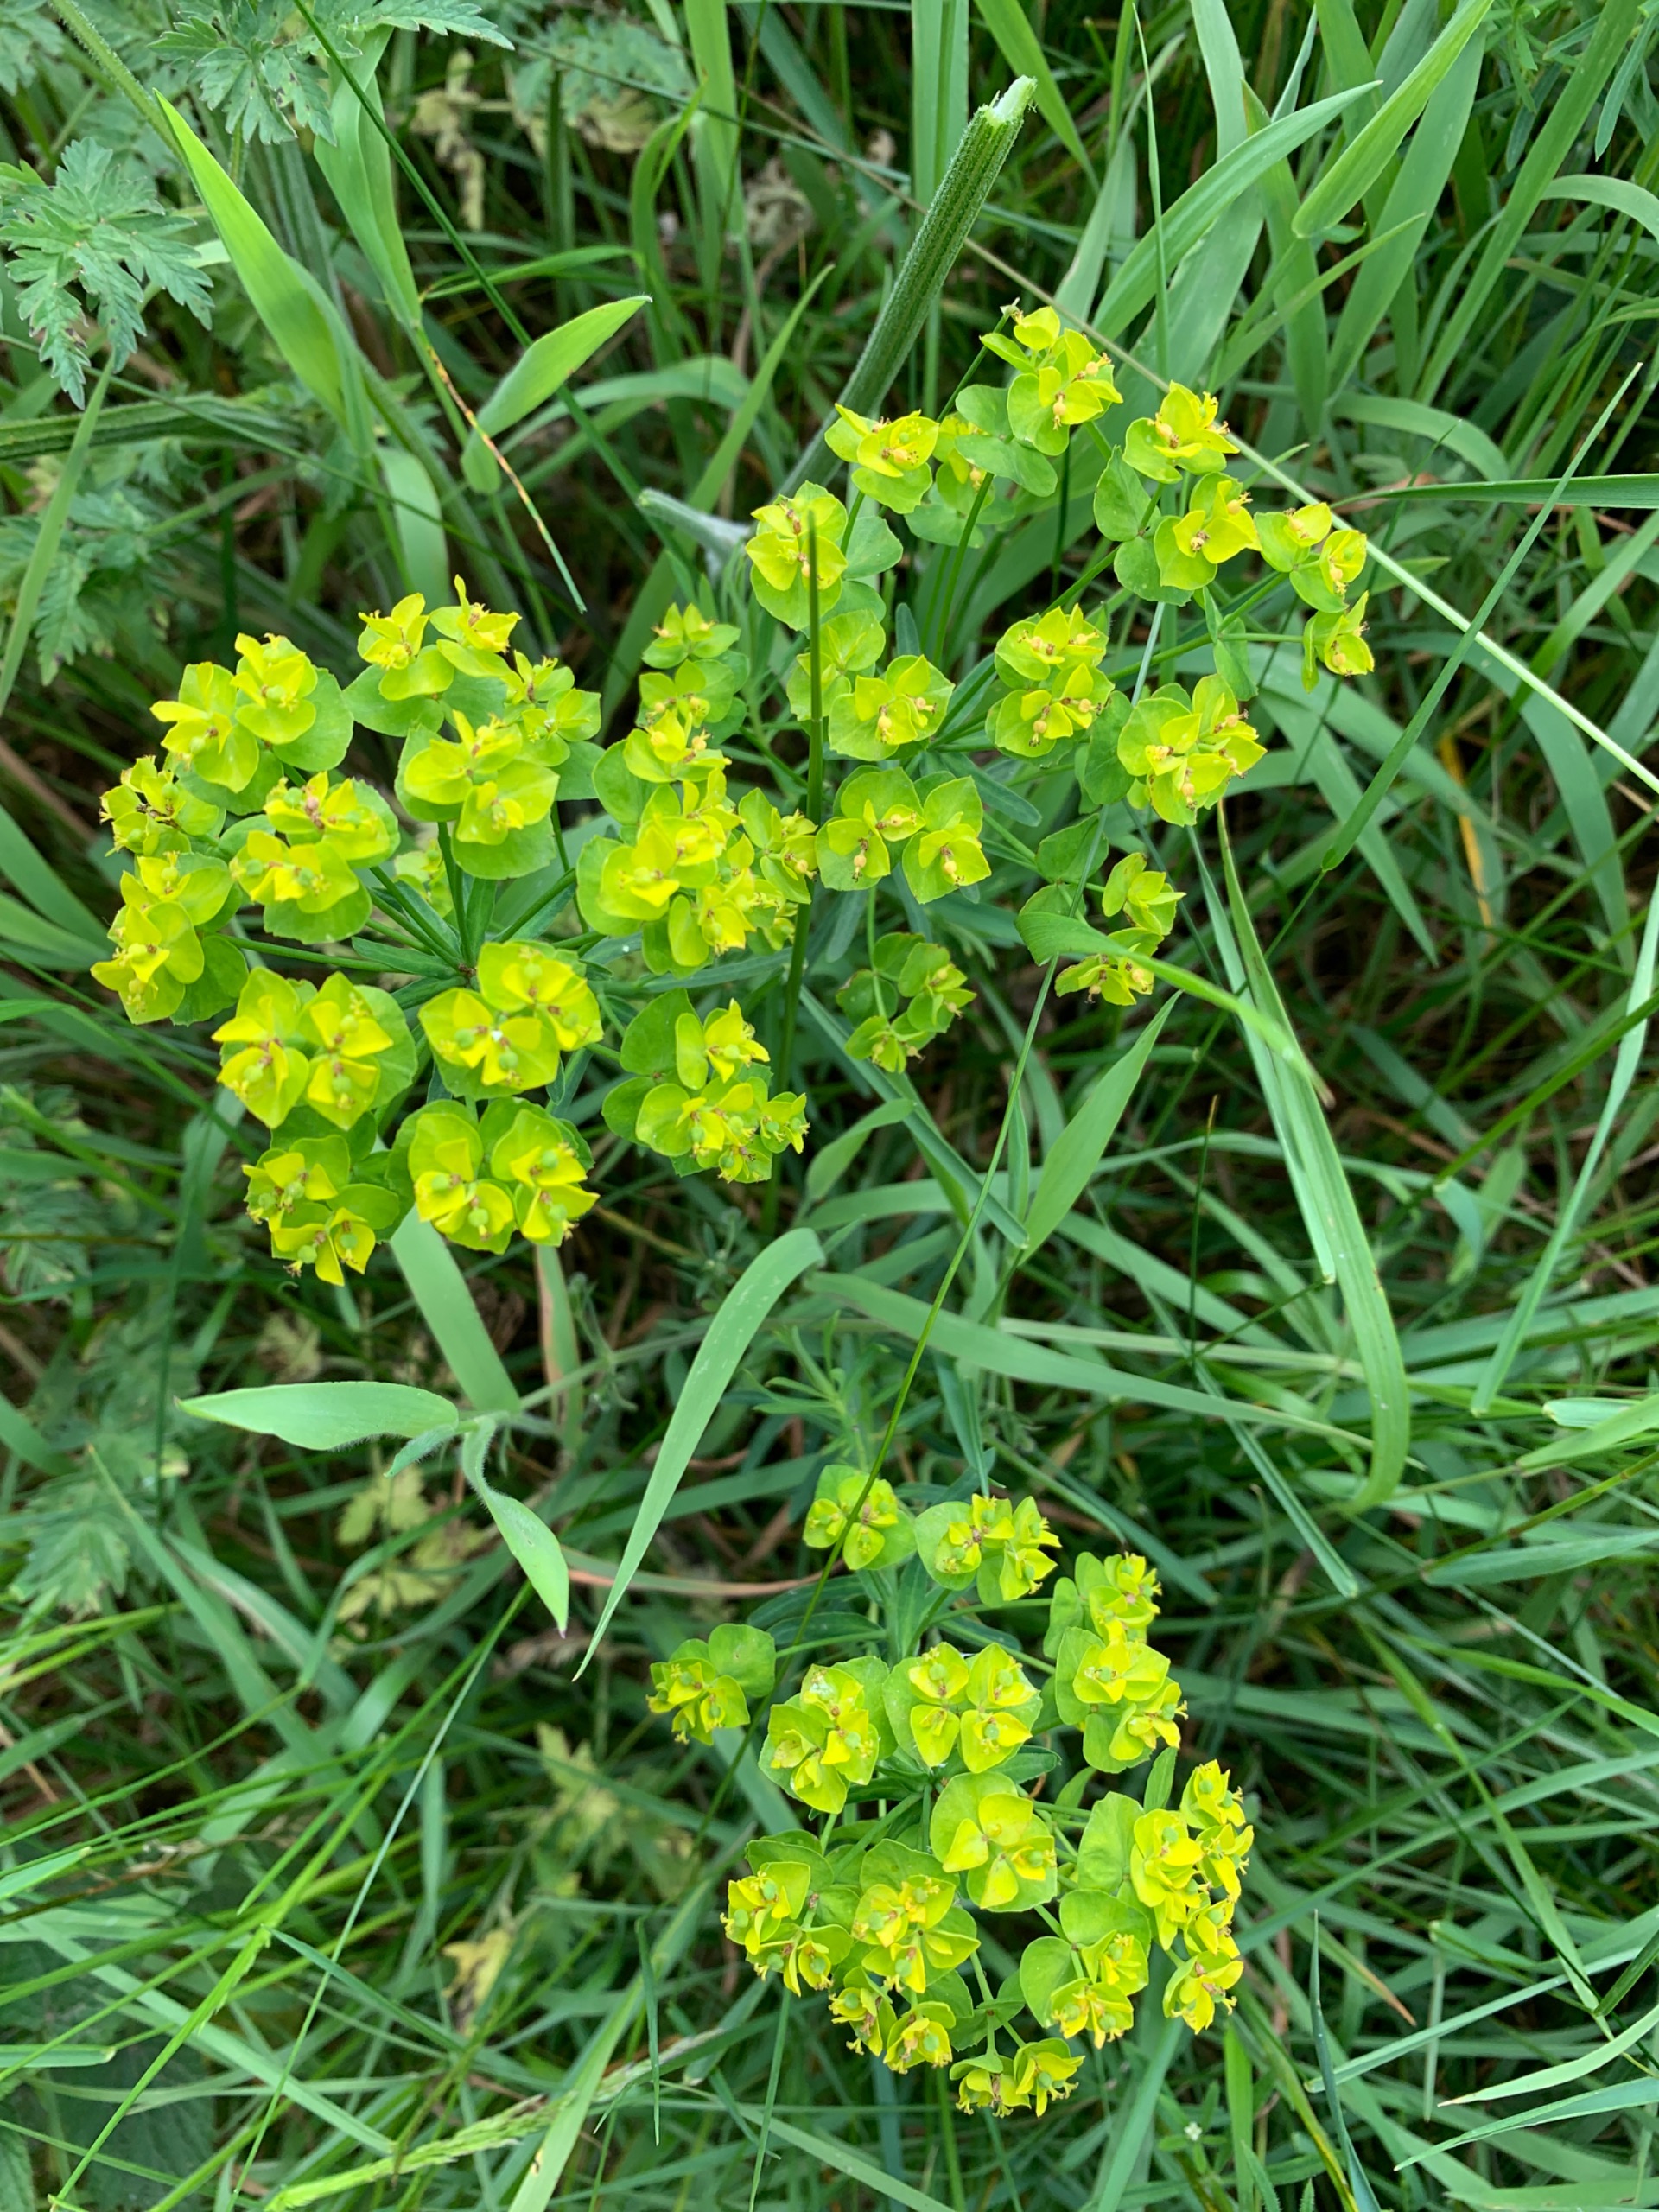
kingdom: Plantae
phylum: Tracheophyta
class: Magnoliopsida
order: Malpighiales
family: Euphorbiaceae
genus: Euphorbia
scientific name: Euphorbia cyparissias
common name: Cypres-vortemælk
